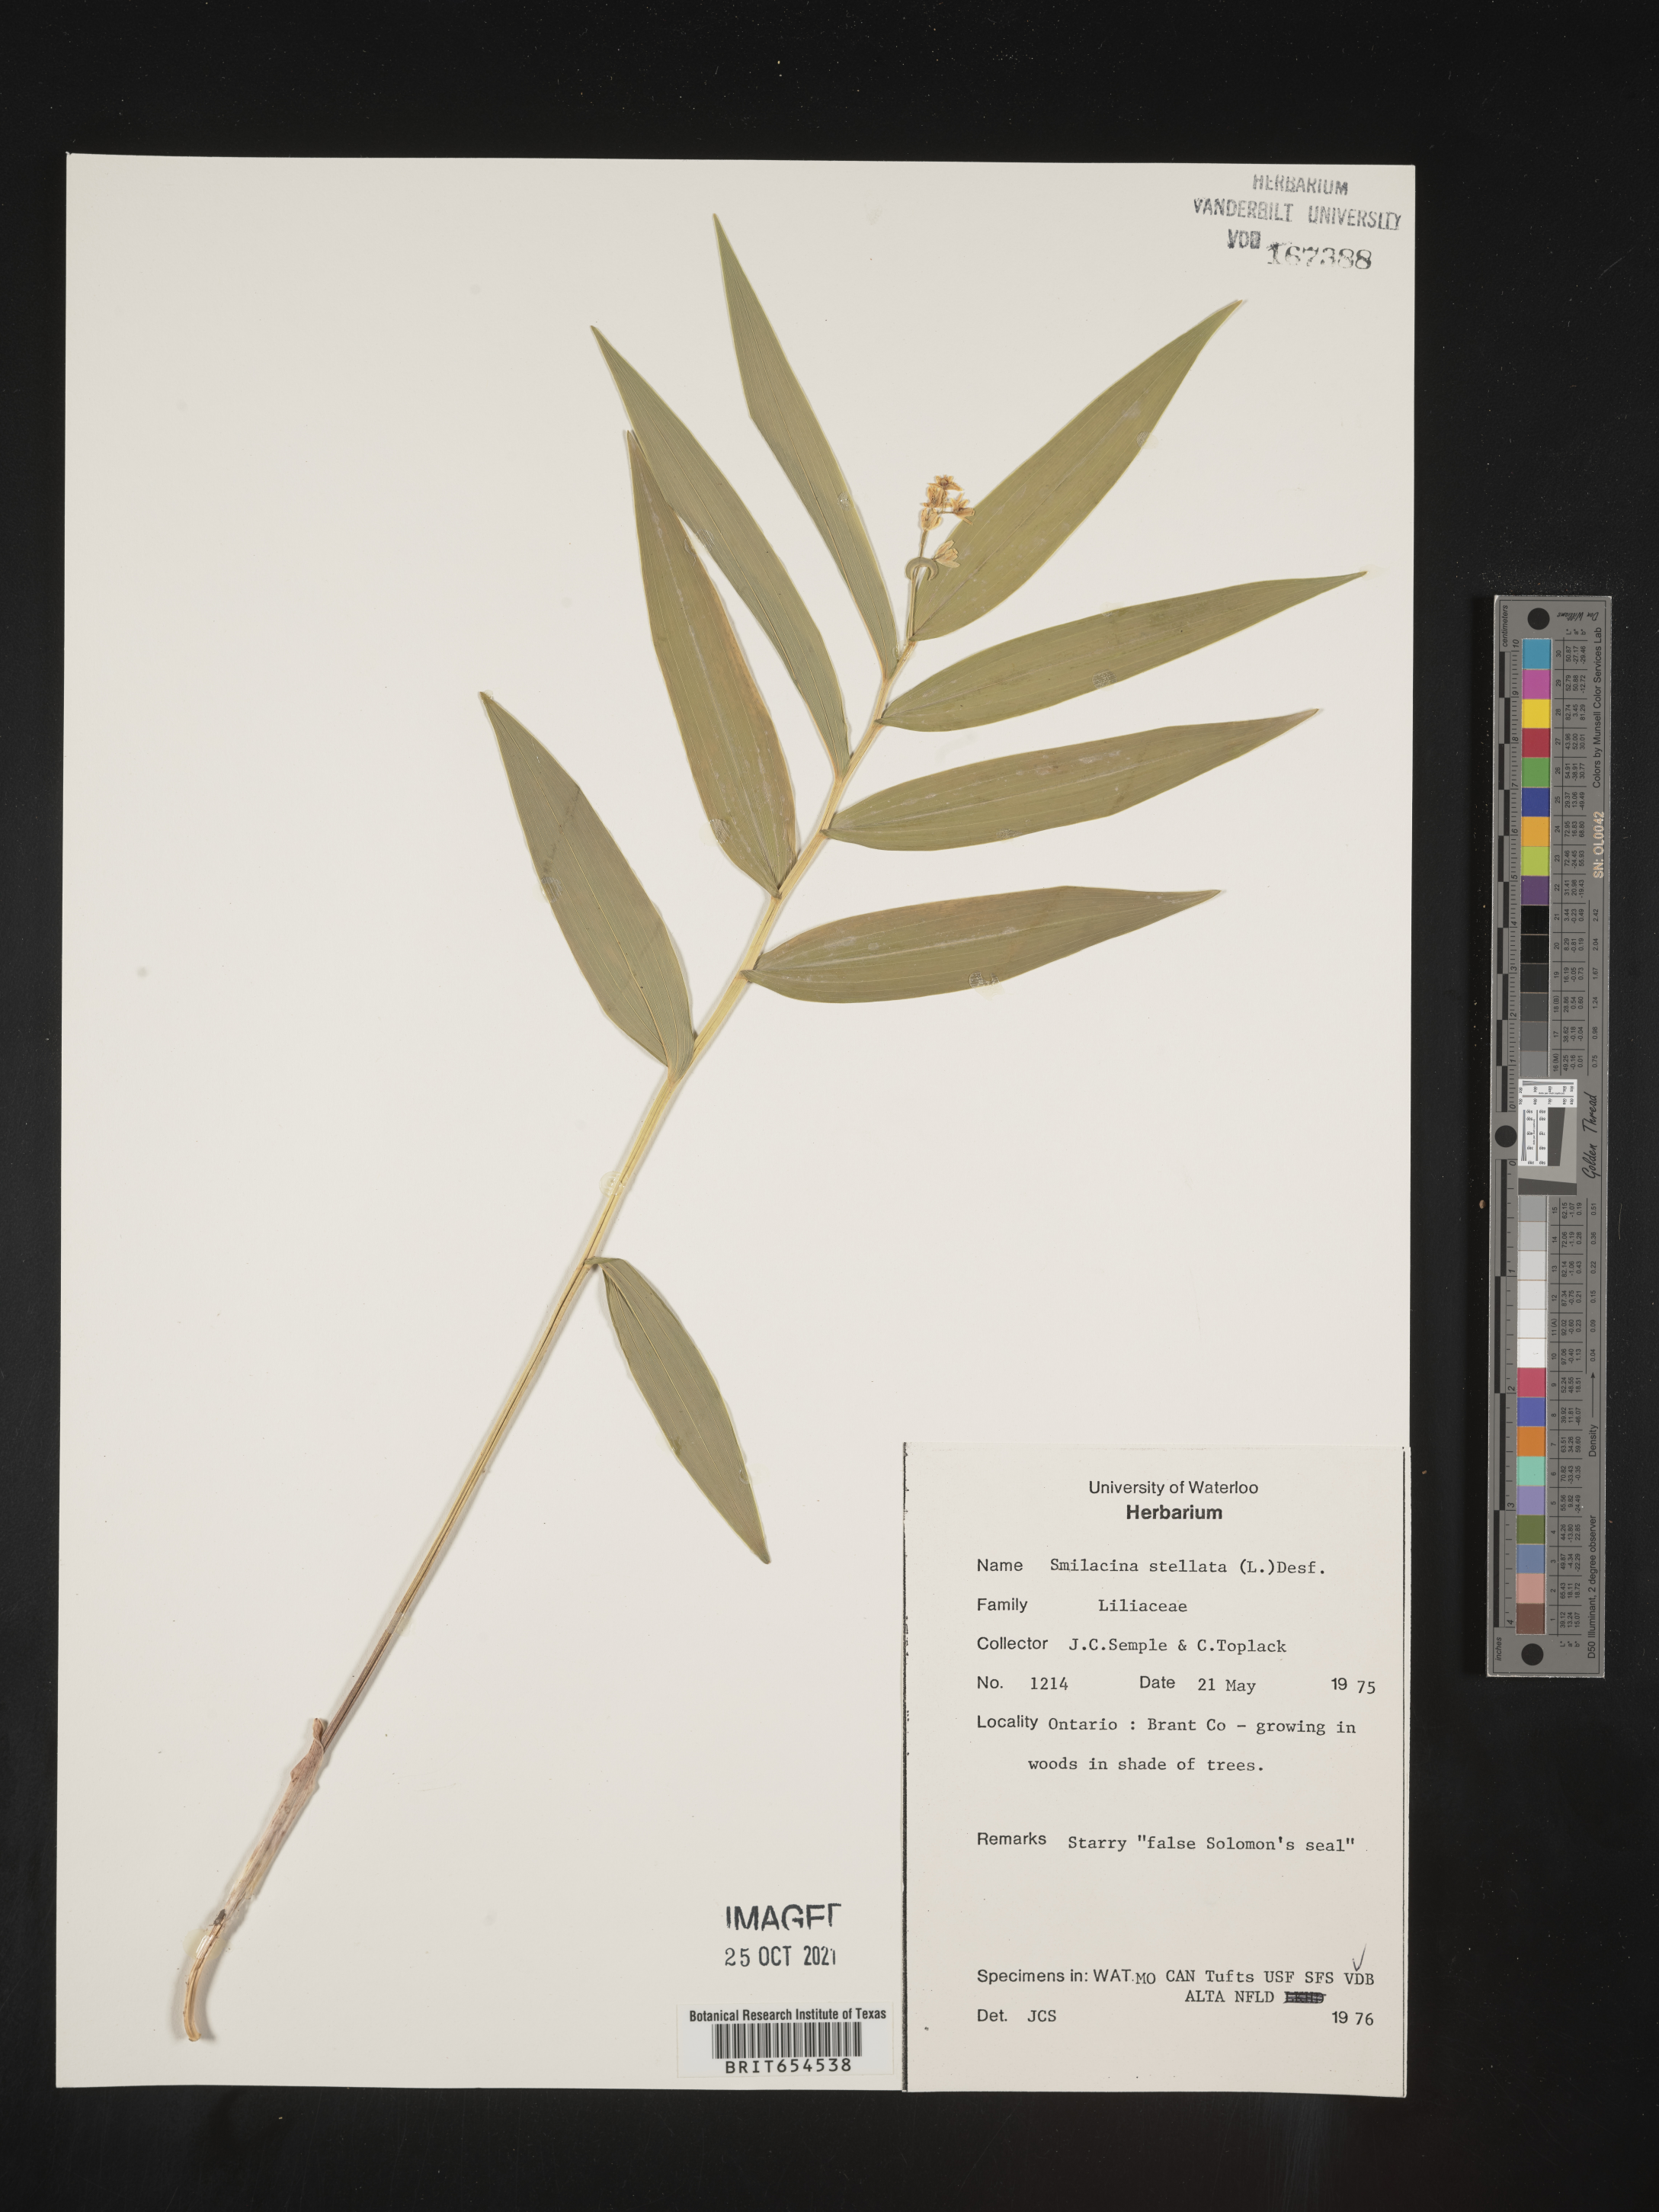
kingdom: Plantae
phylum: Tracheophyta
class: Liliopsida
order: Asparagales
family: Asparagaceae
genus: Maianthemum
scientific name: Maianthemum stellatum
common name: Little false solomon's seal
